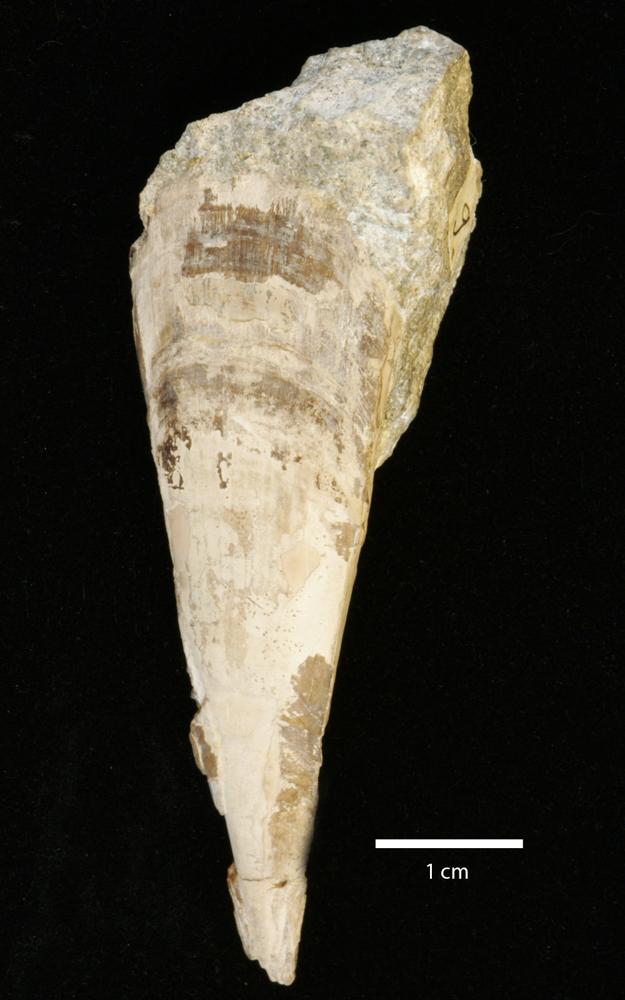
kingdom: Animalia
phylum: Annelida
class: Polychaeta
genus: Hyolithes
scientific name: Hyolithes
